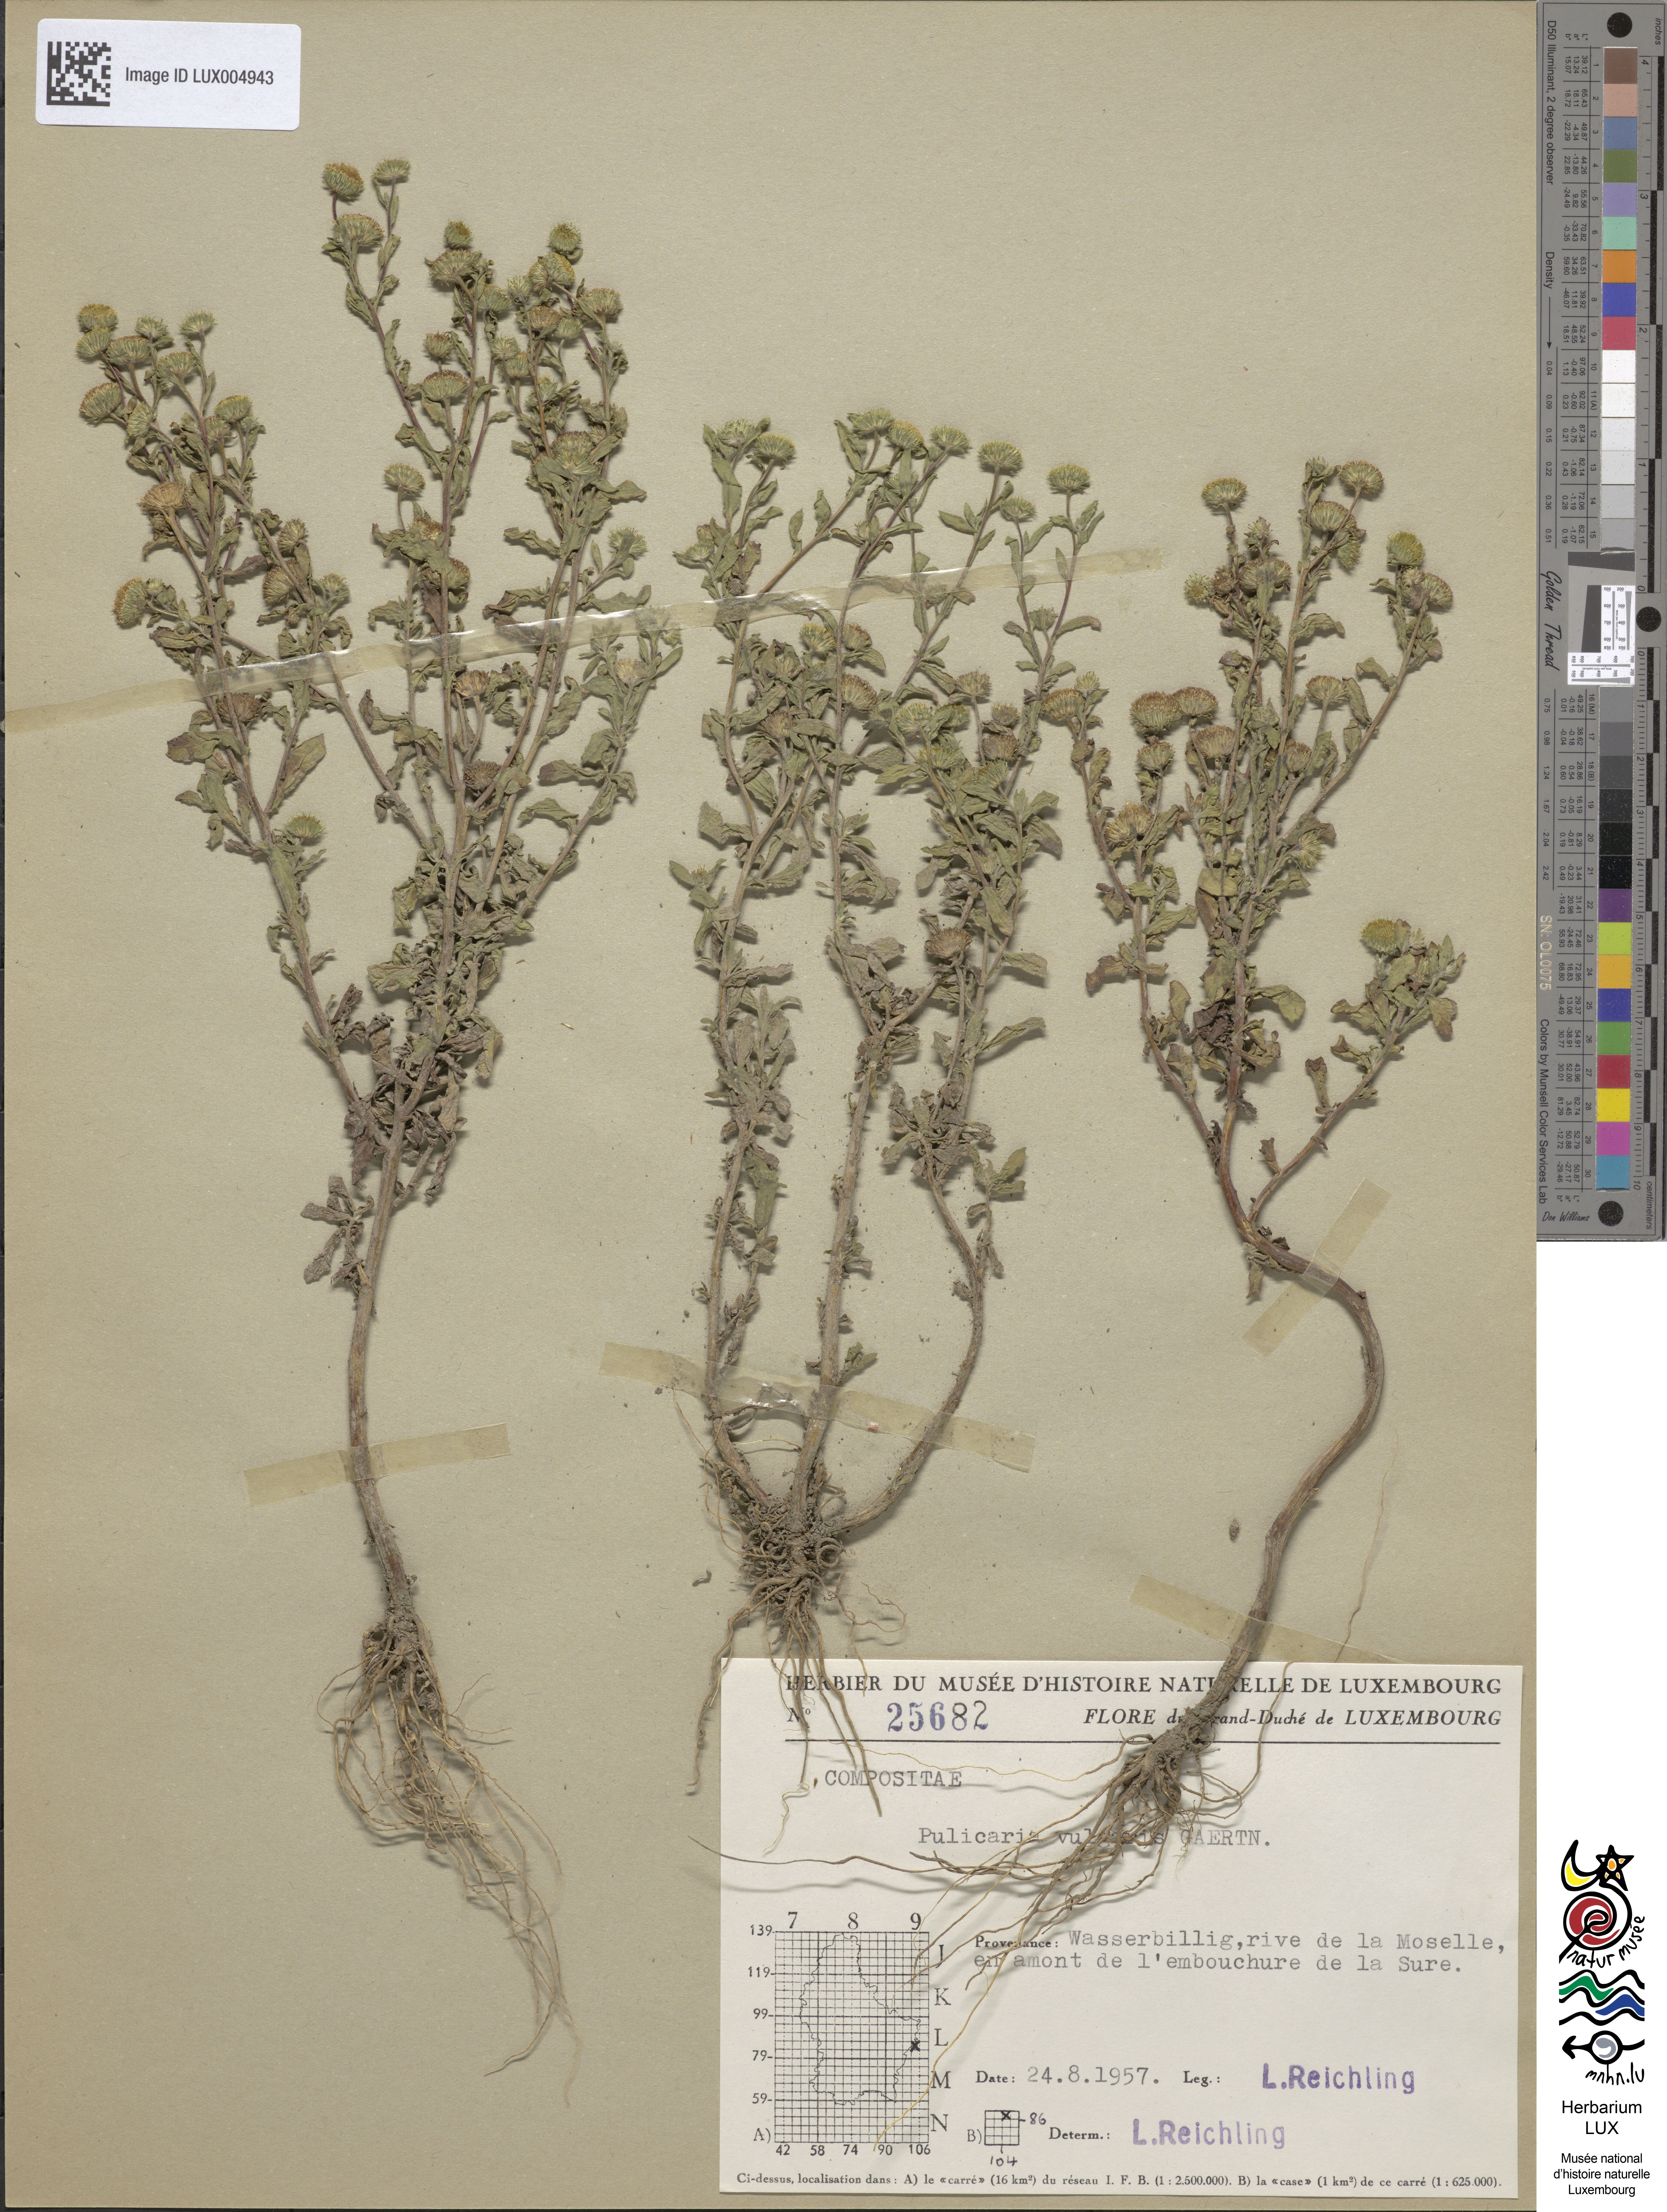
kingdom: Plantae
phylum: Tracheophyta
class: Magnoliopsida
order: Asterales
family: Asteraceae
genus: Pulicaria
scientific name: Pulicaria vulgaris
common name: Small fleabane
